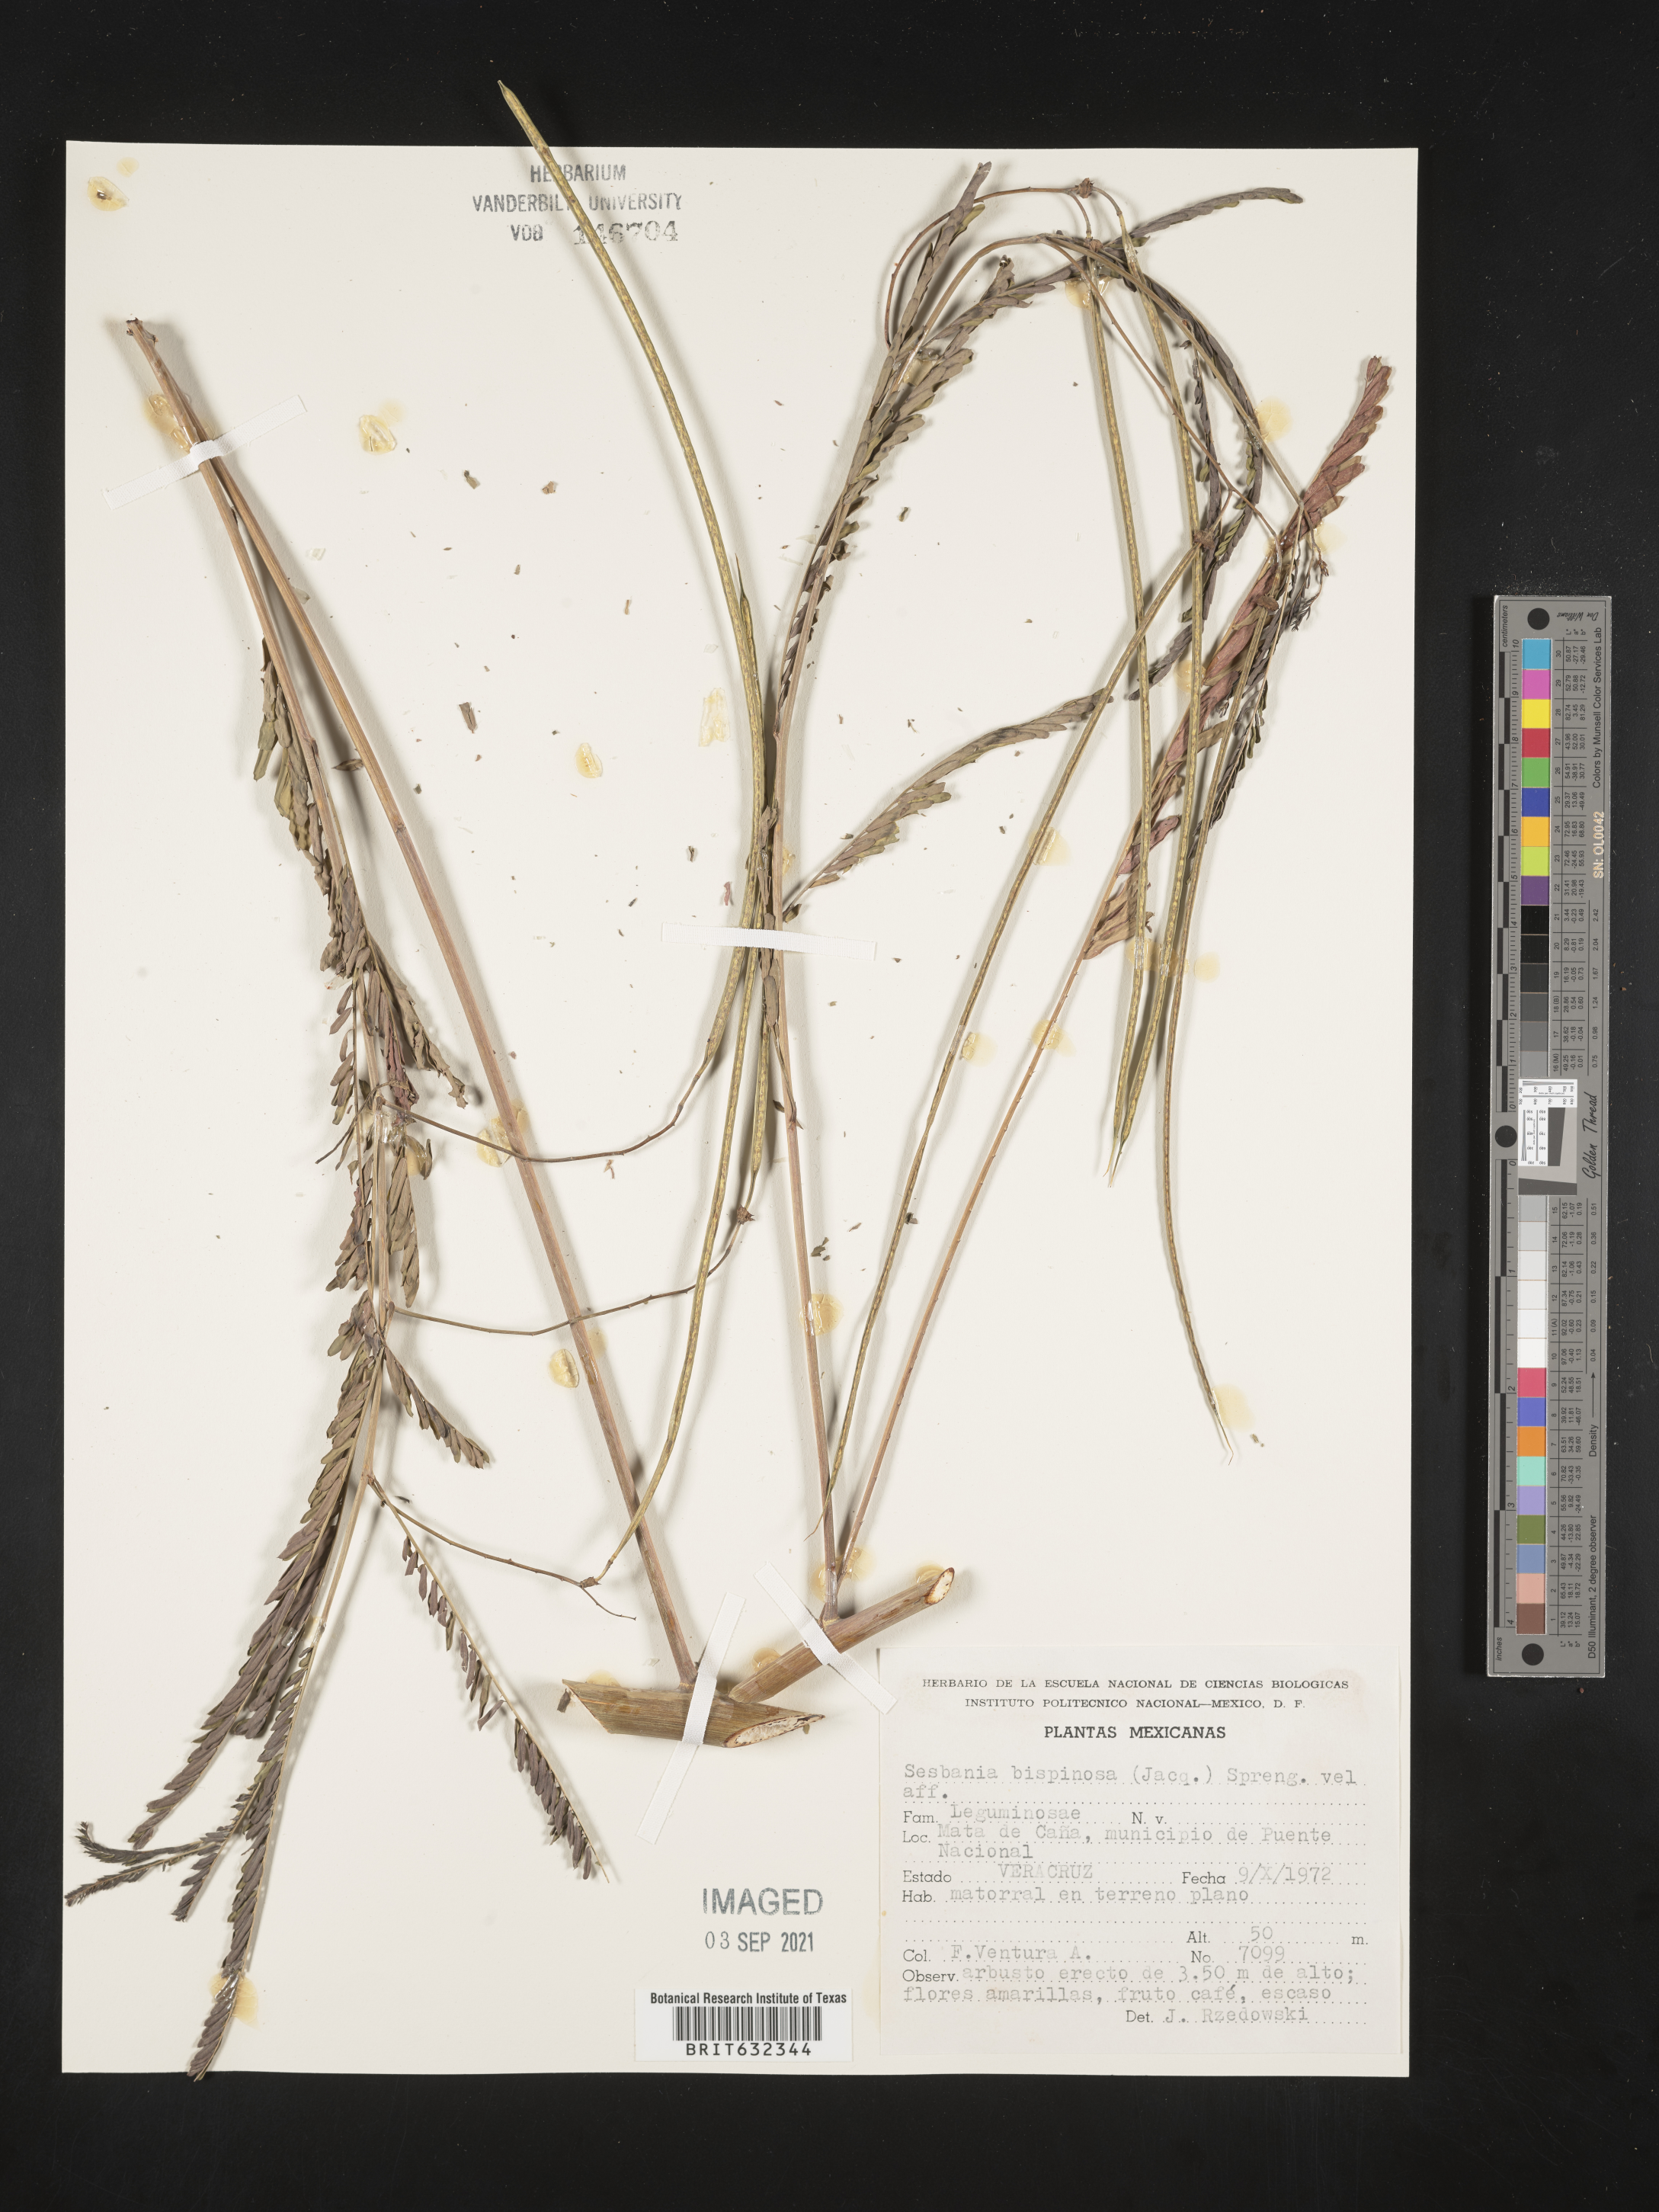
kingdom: Plantae
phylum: Tracheophyta
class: Magnoliopsida
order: Fabales
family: Fabaceae
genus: Sesbania
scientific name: Sesbania bispinosa
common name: Sesbania pea
